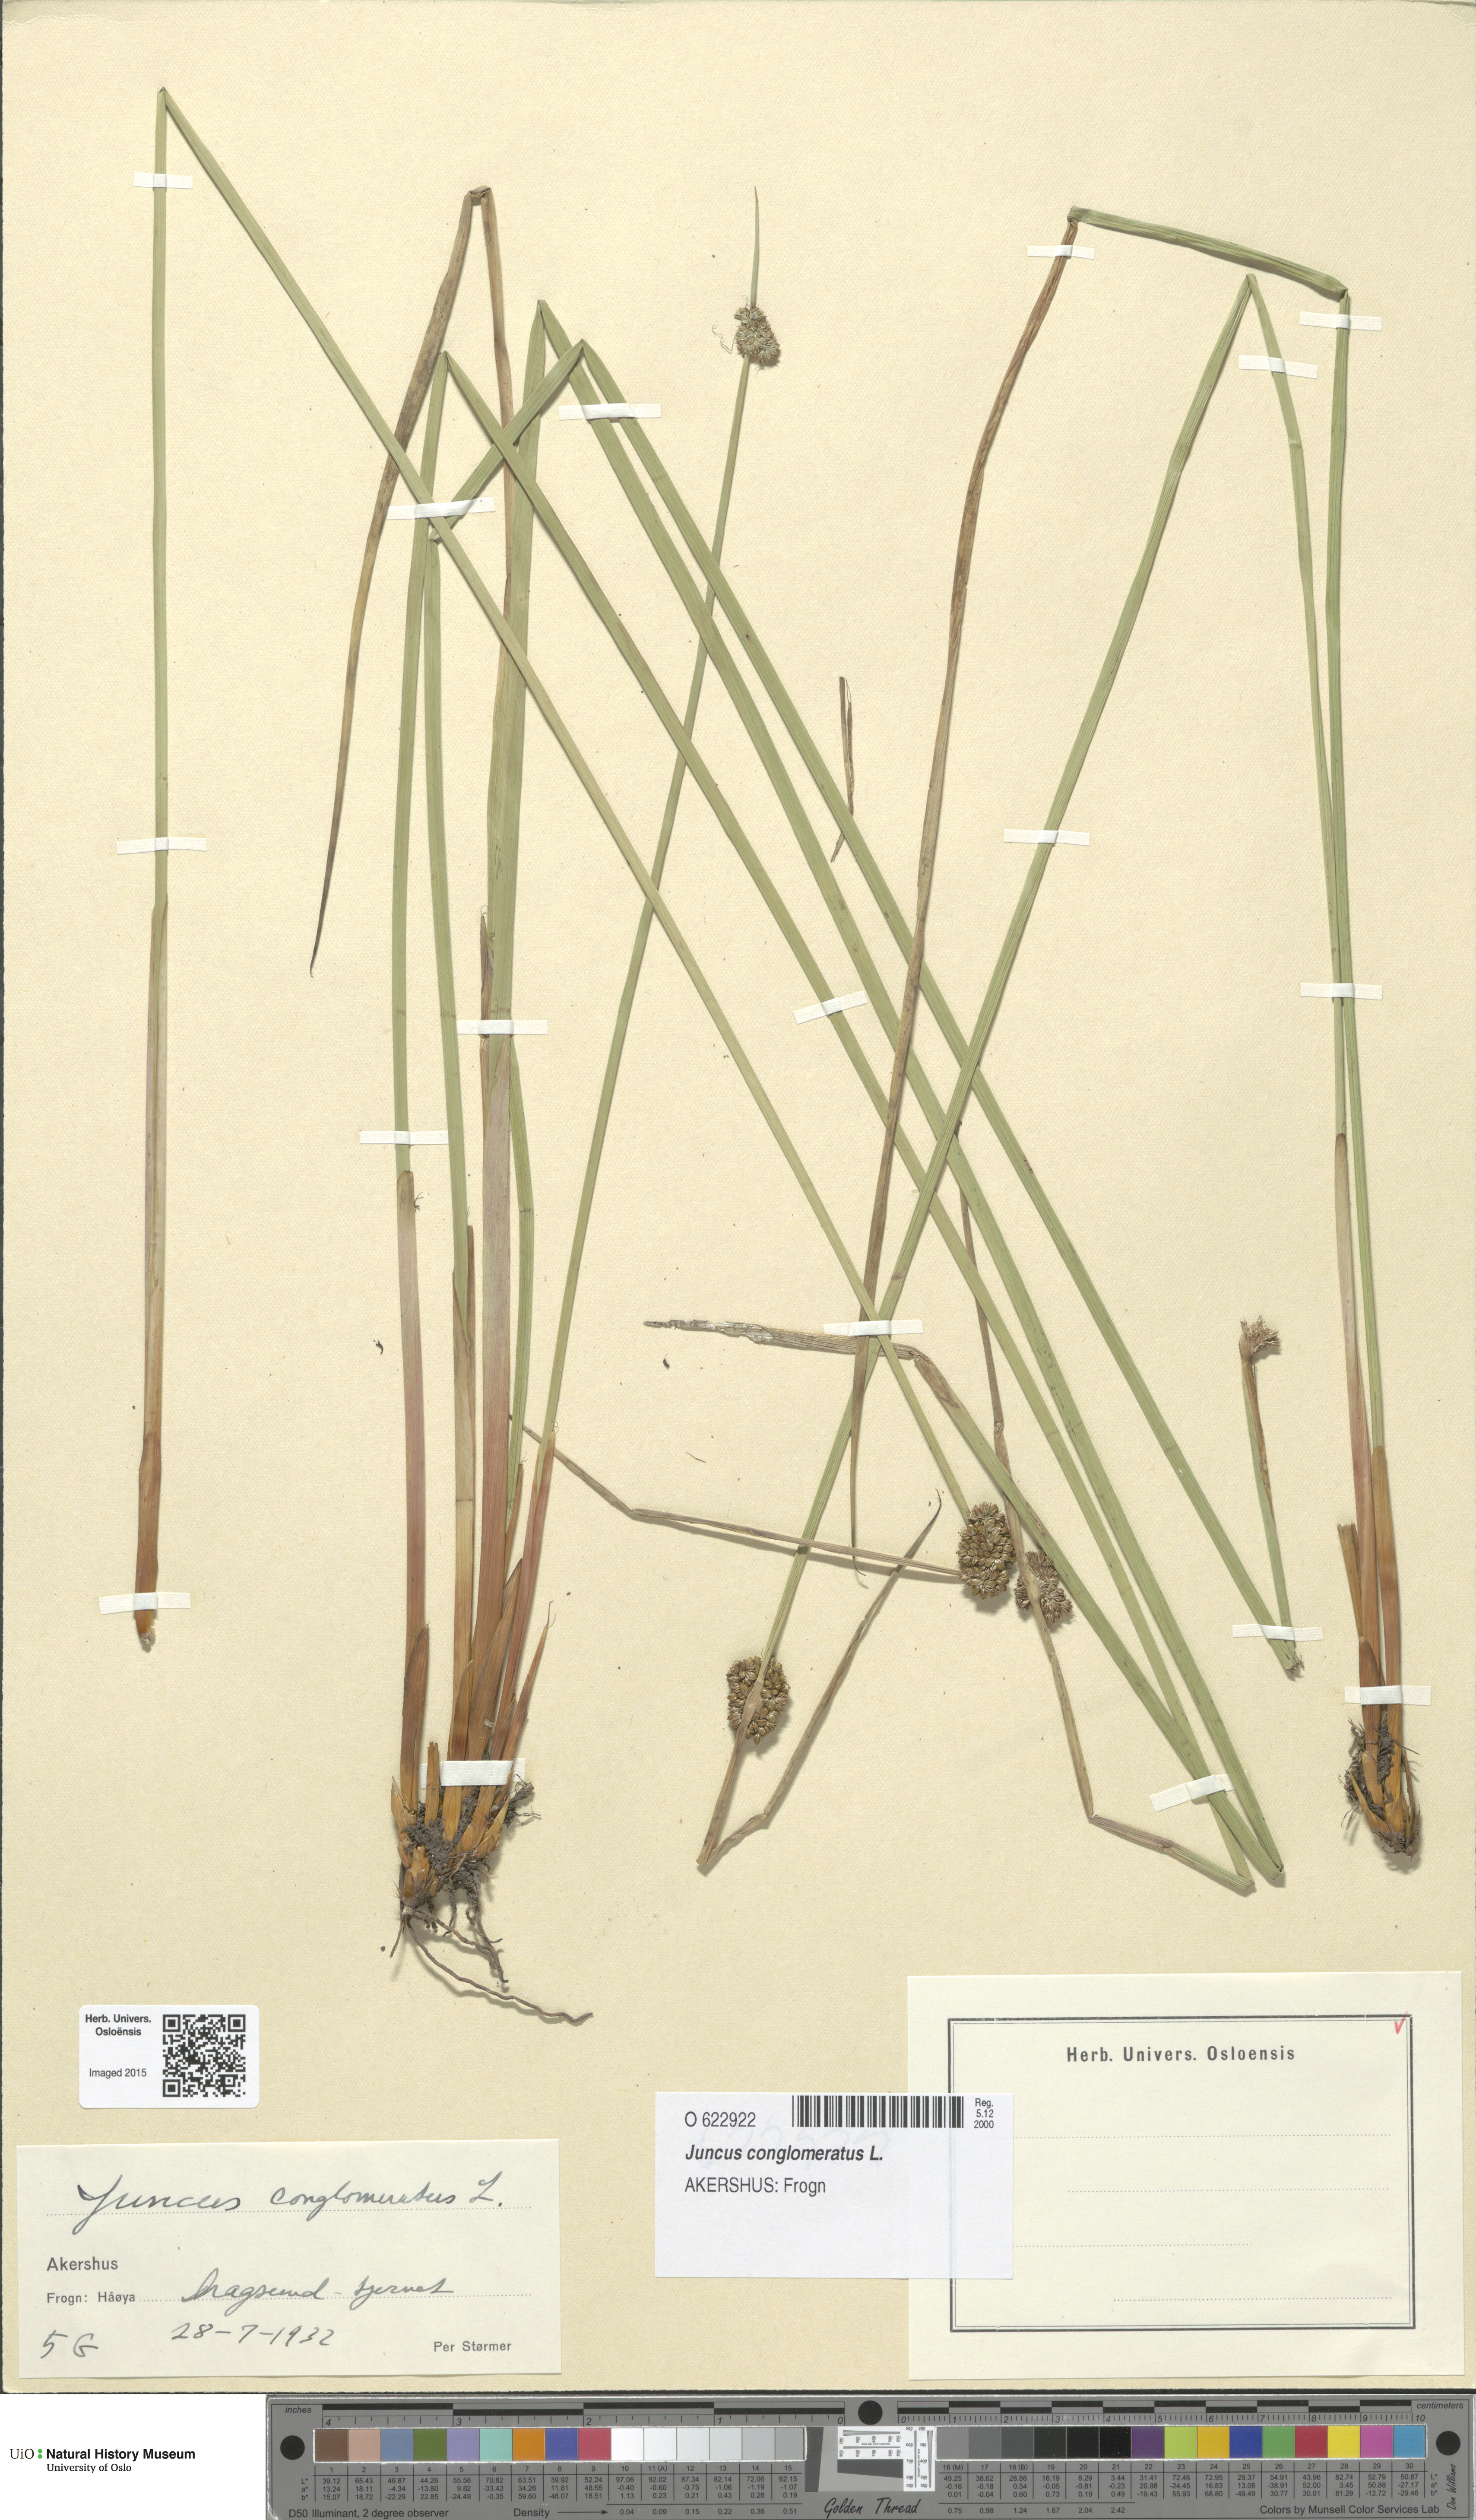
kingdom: Plantae
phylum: Tracheophyta
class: Liliopsida
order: Poales
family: Juncaceae
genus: Juncus
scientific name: Juncus conglomeratus
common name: Compact rush
